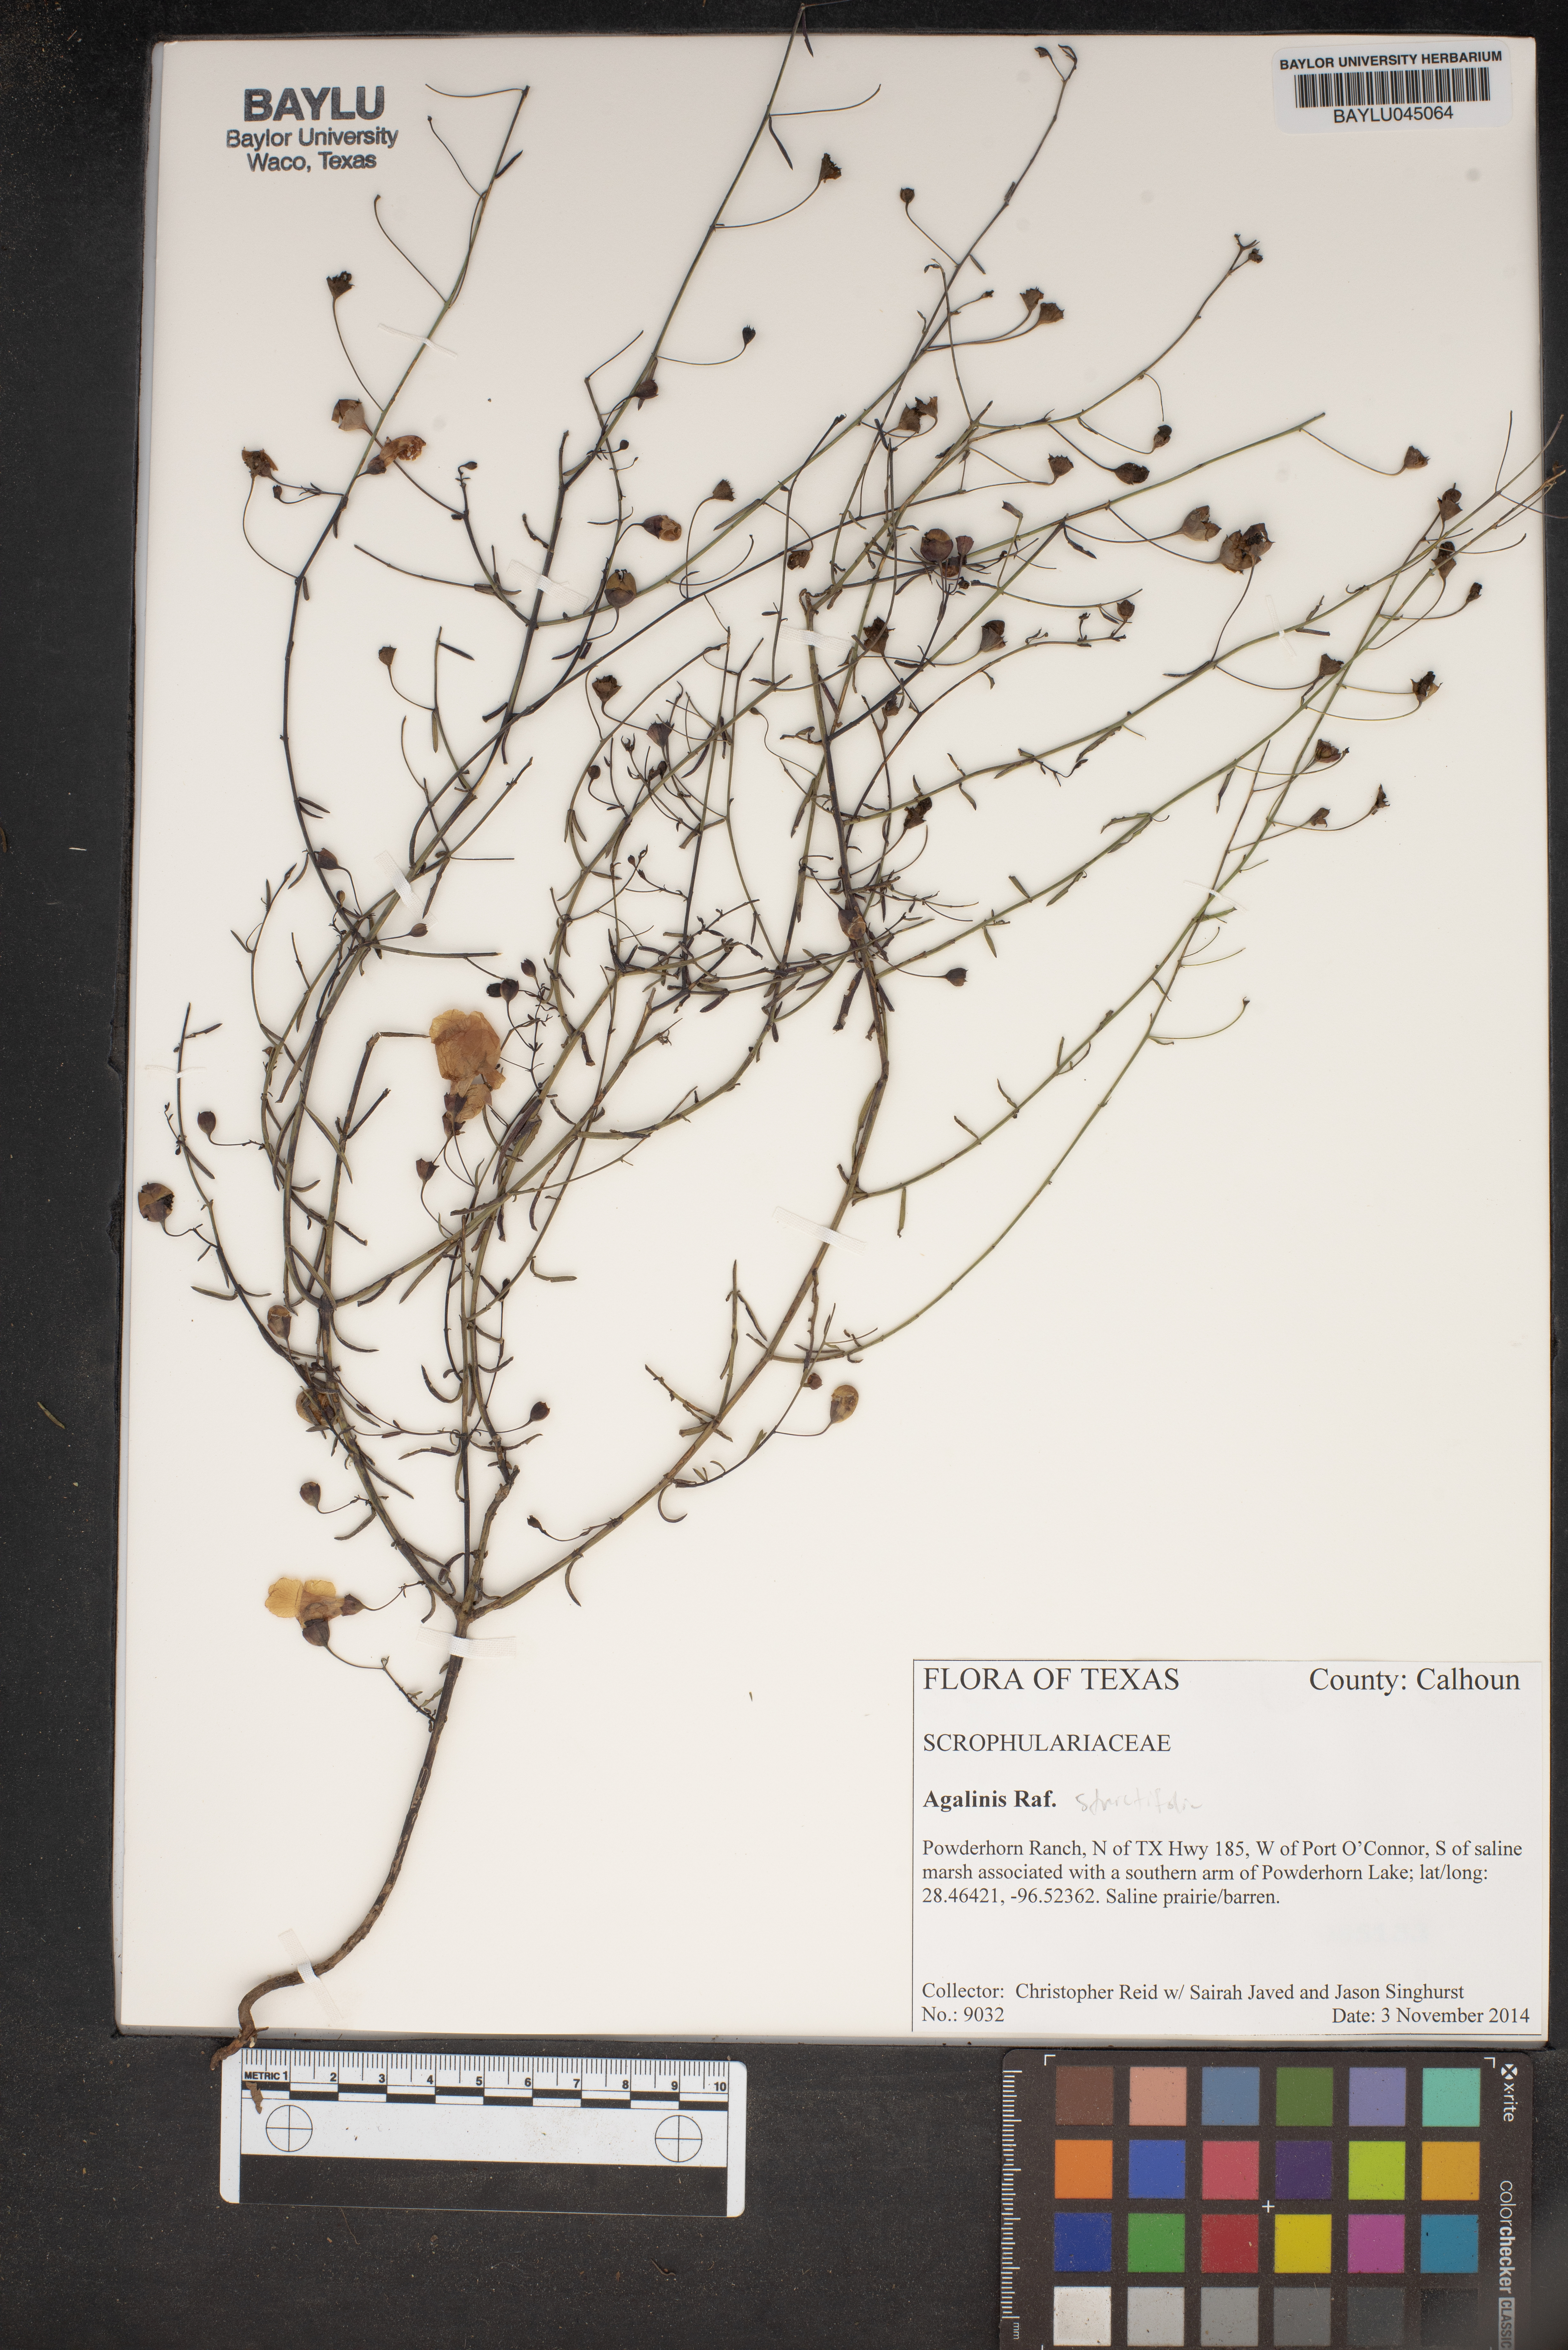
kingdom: Plantae
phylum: Tracheophyta
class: Magnoliopsida
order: Lamiales
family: Orobanchaceae
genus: Agalinis
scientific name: Agalinis strictifolia
